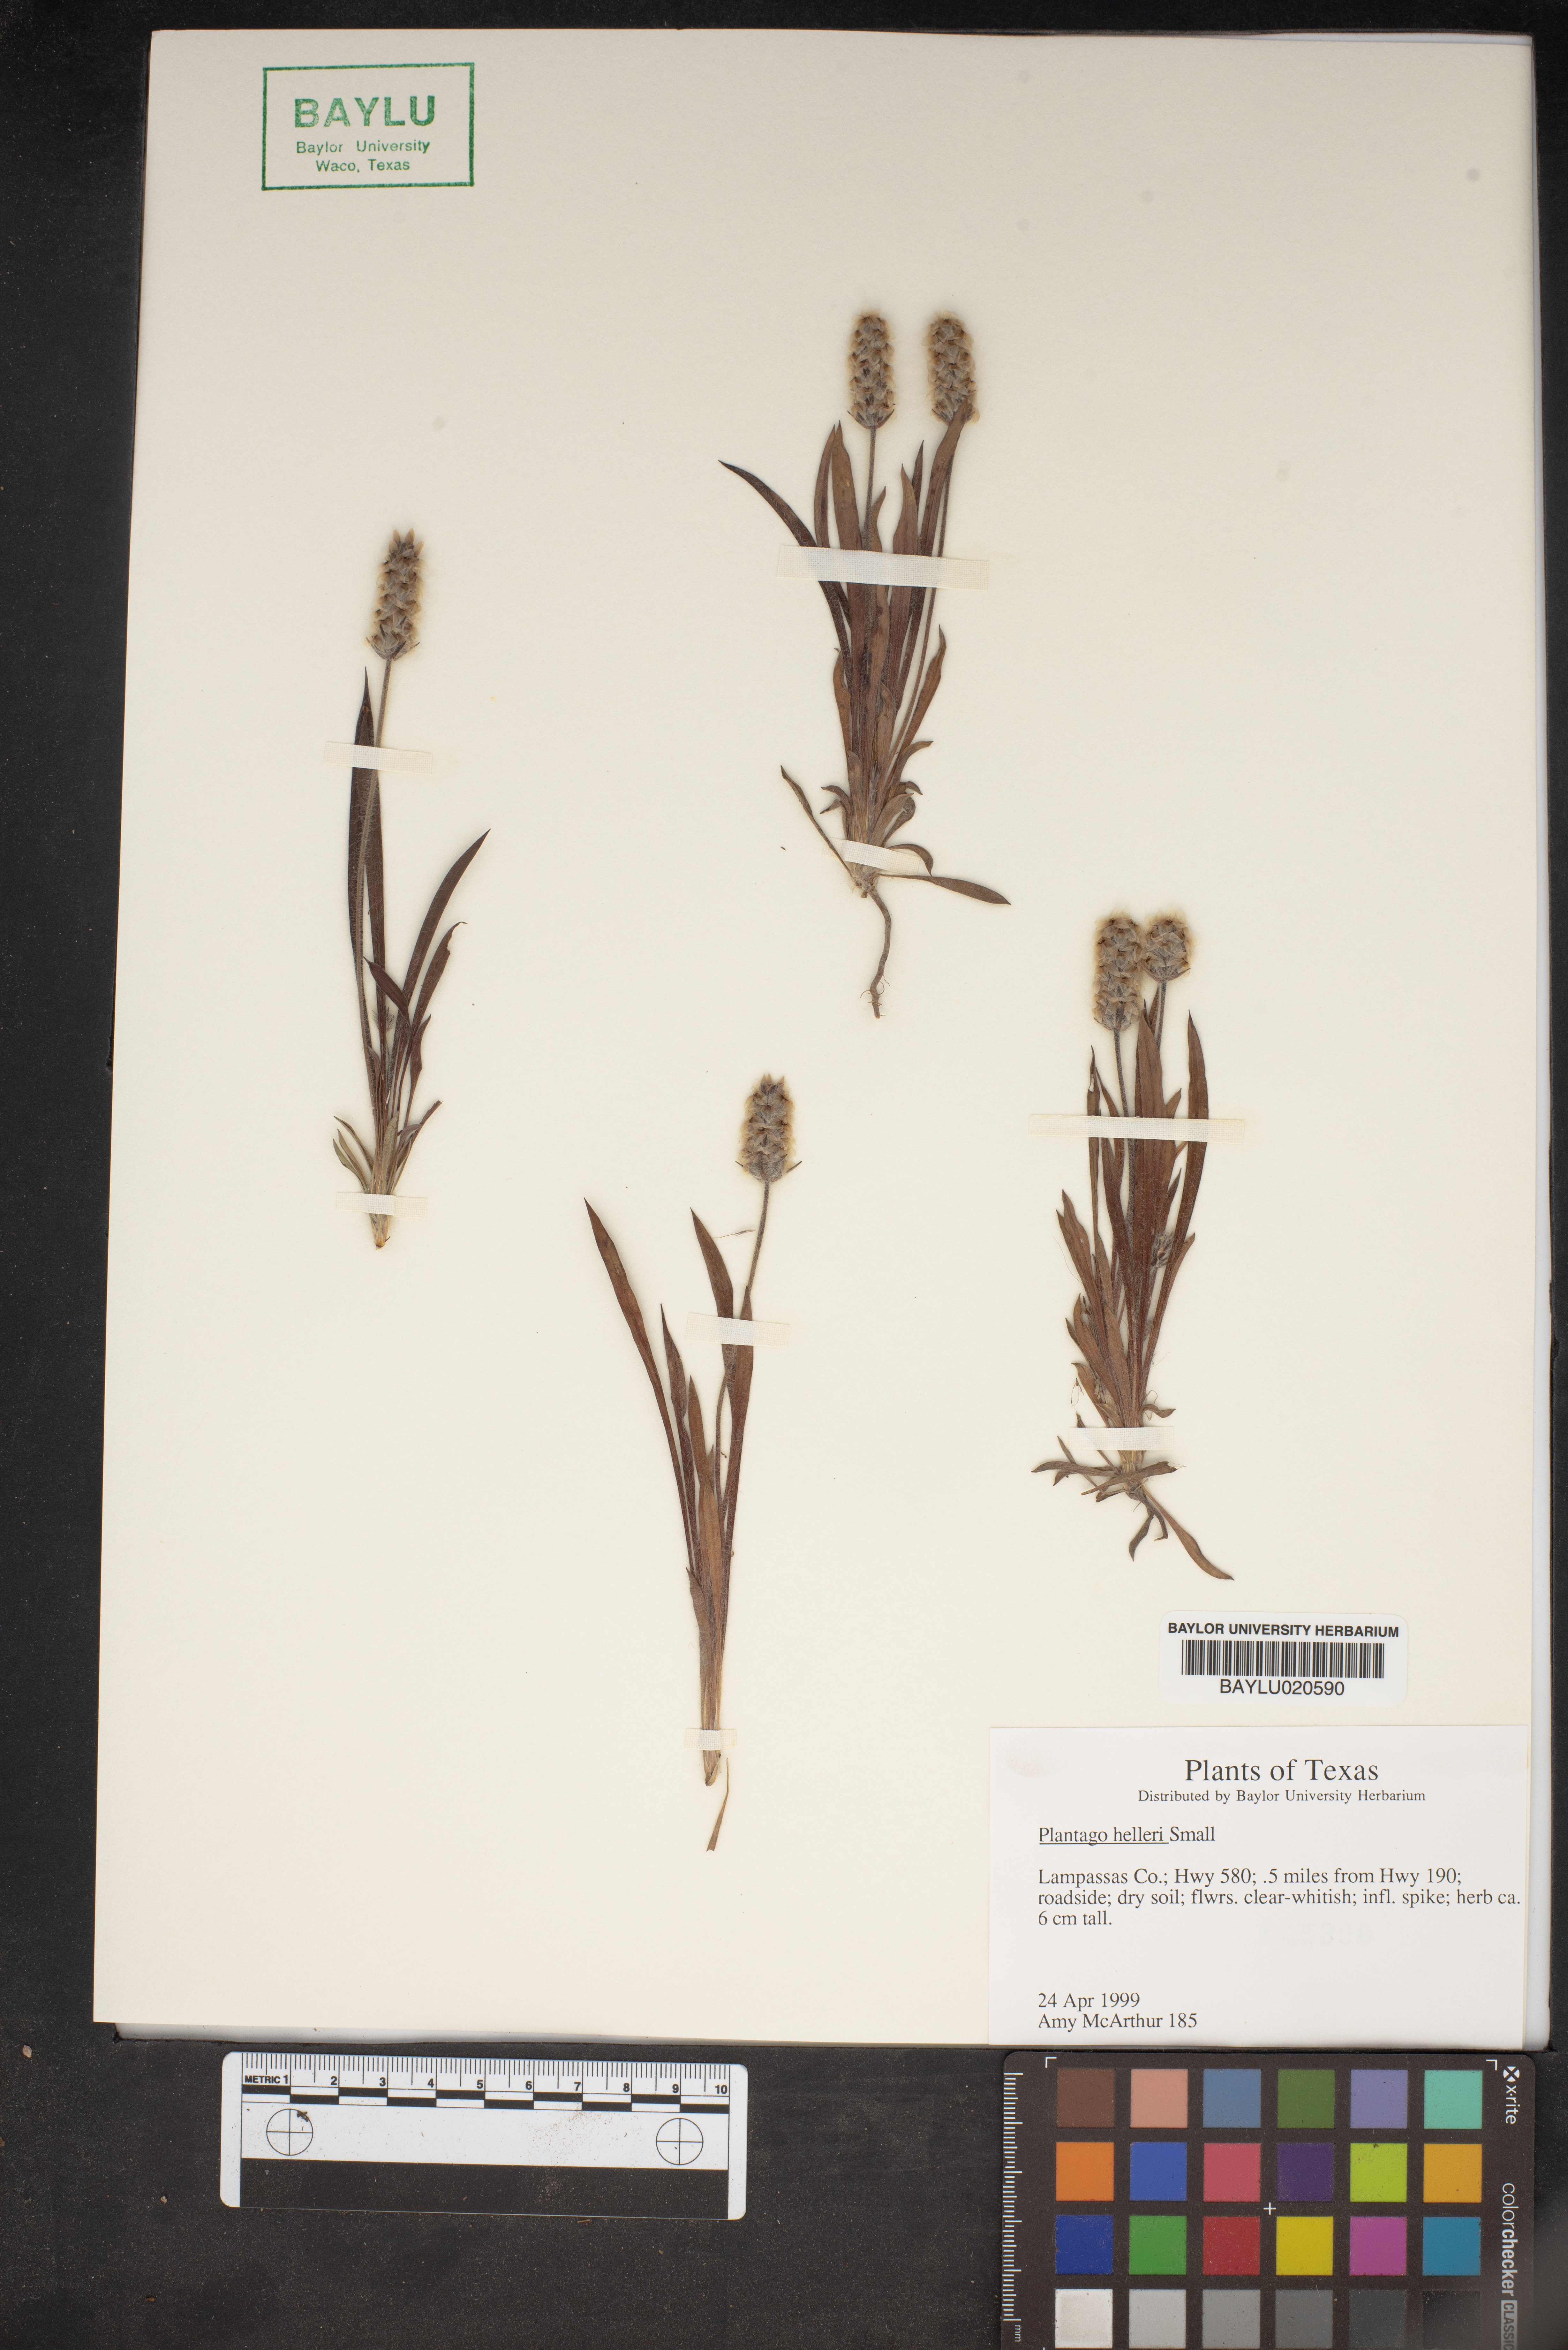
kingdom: Plantae
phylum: Tracheophyta
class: Magnoliopsida
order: Lamiales
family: Plantaginaceae
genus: Plantago
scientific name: Plantago helleri
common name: Heller's plantain
